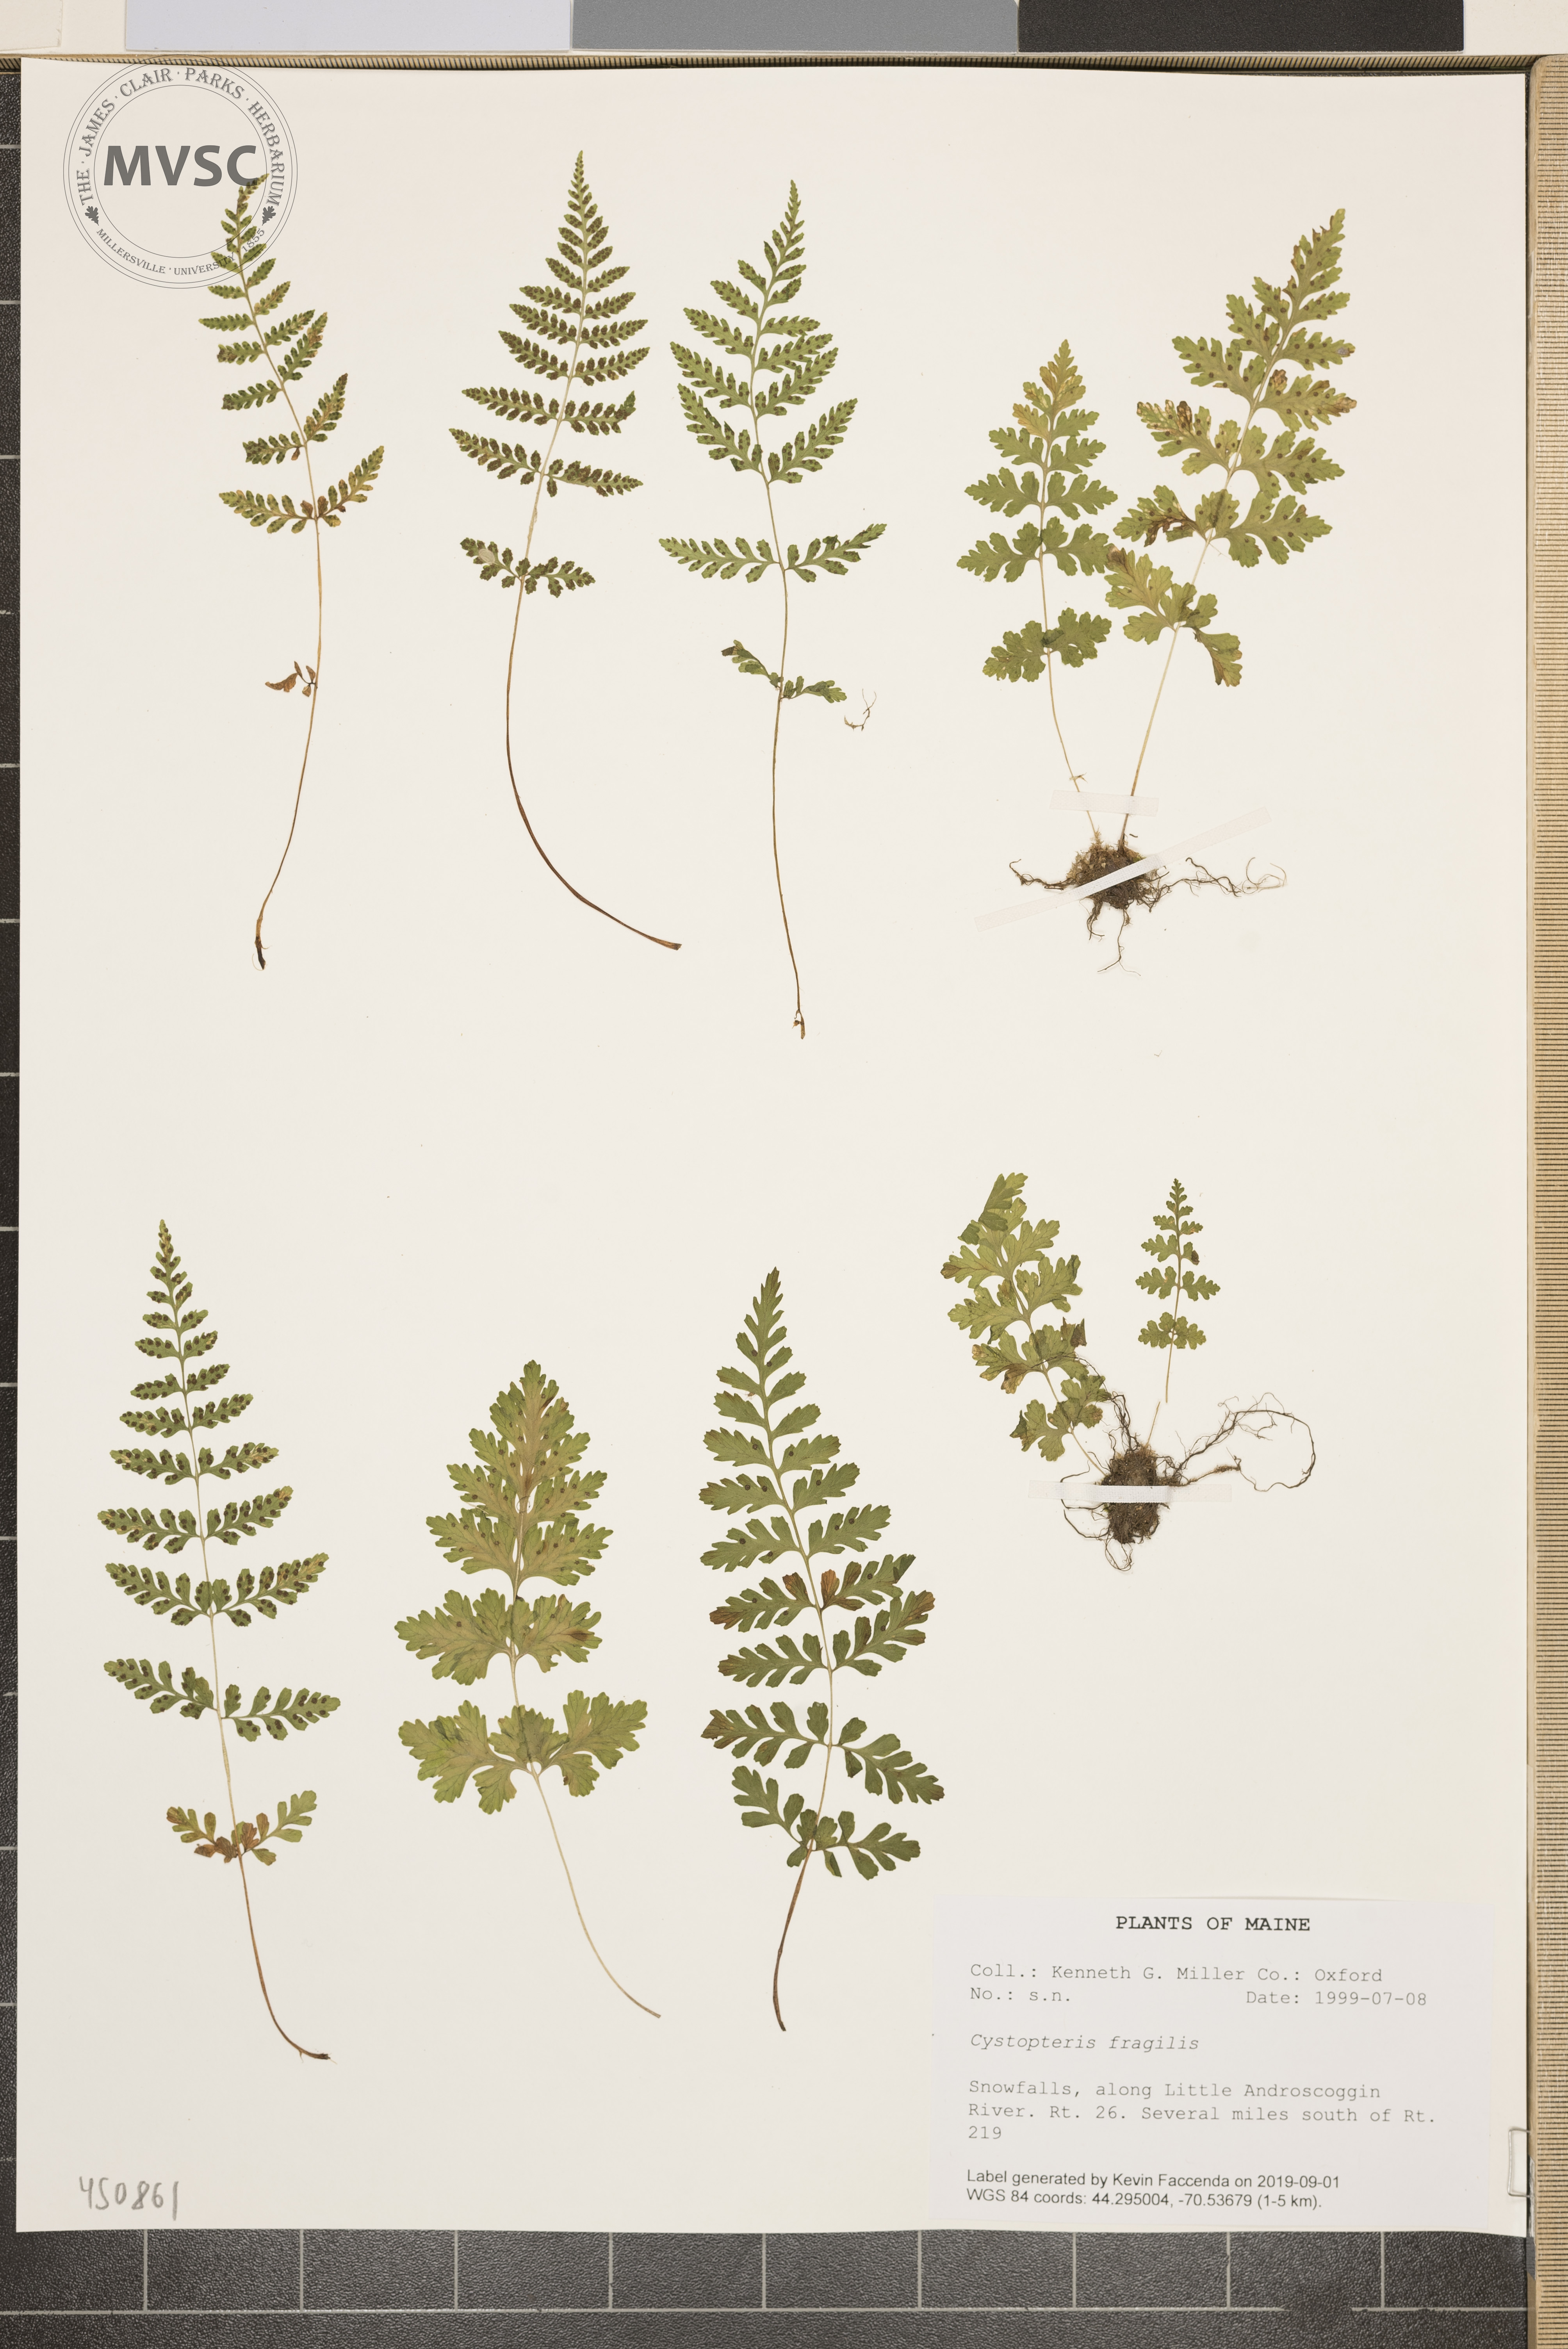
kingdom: Plantae
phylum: Tracheophyta
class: Polypodiopsida
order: Polypodiales
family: Cystopteridaceae
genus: Cystopteris
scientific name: Cystopteris fragilis
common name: Brittle bladder fern
